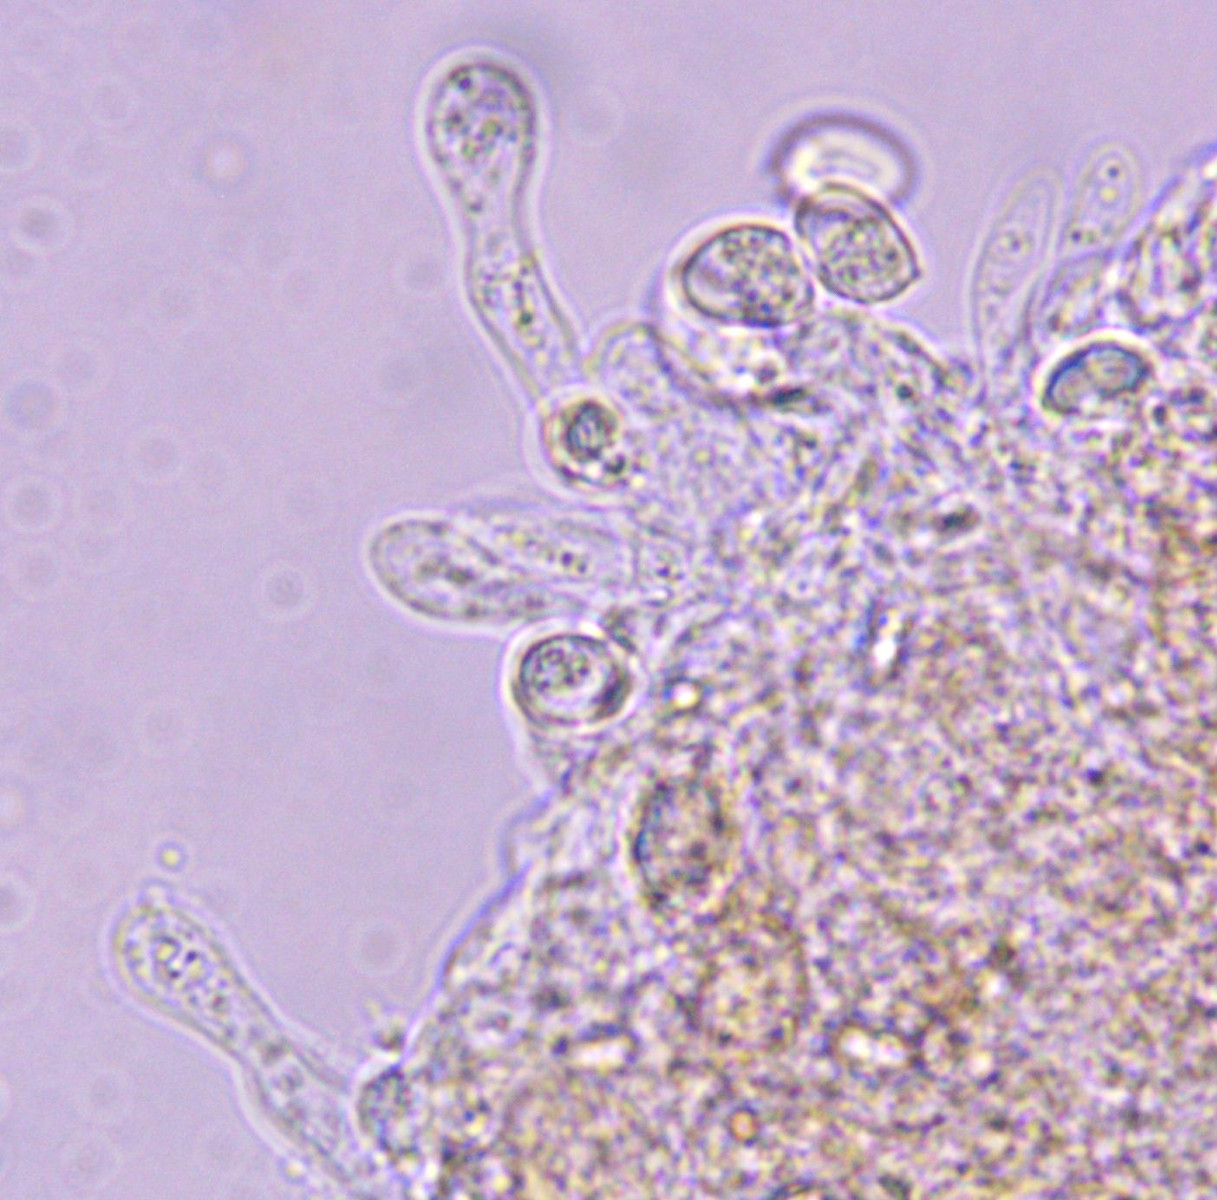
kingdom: Fungi
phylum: Basidiomycota
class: Agaricomycetes
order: Agaricales
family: Tubariaceae
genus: Flammulaster
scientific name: Flammulaster carpophilus
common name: blegrosa grynskælhat
